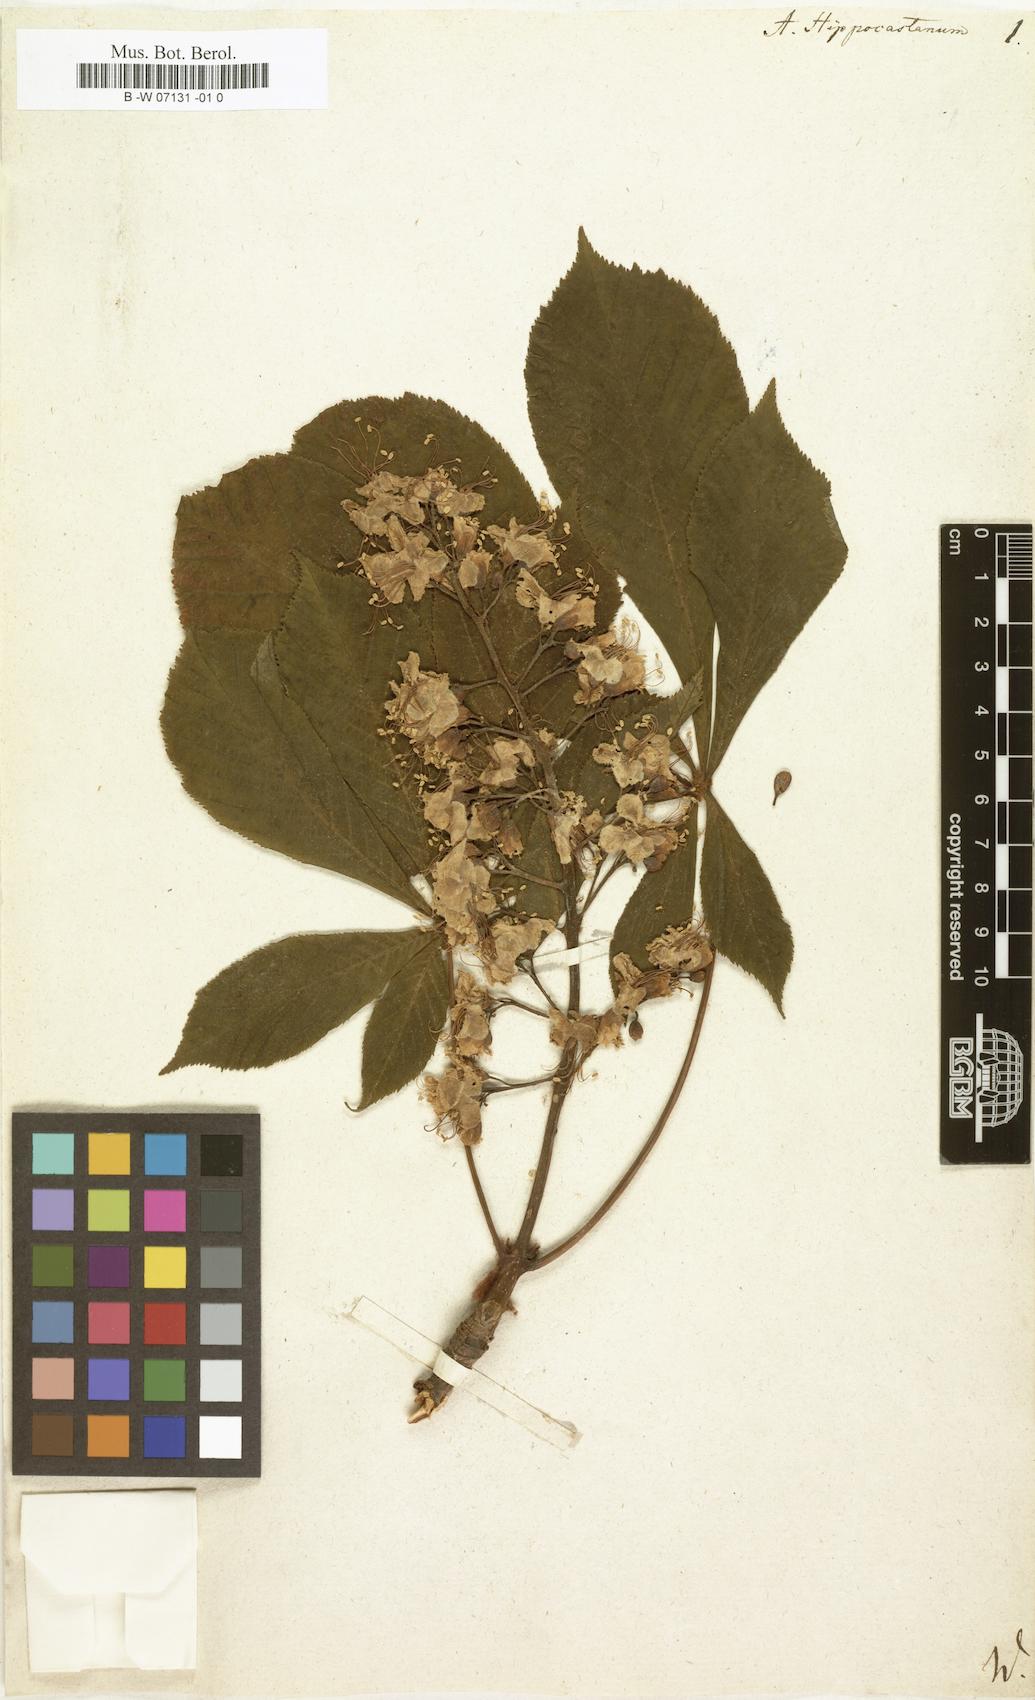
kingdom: Plantae
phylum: Tracheophyta
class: Magnoliopsida
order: Sapindales
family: Sapindaceae
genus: Aesculus
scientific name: Aesculus hippocastanum
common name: Horse-chestnut
